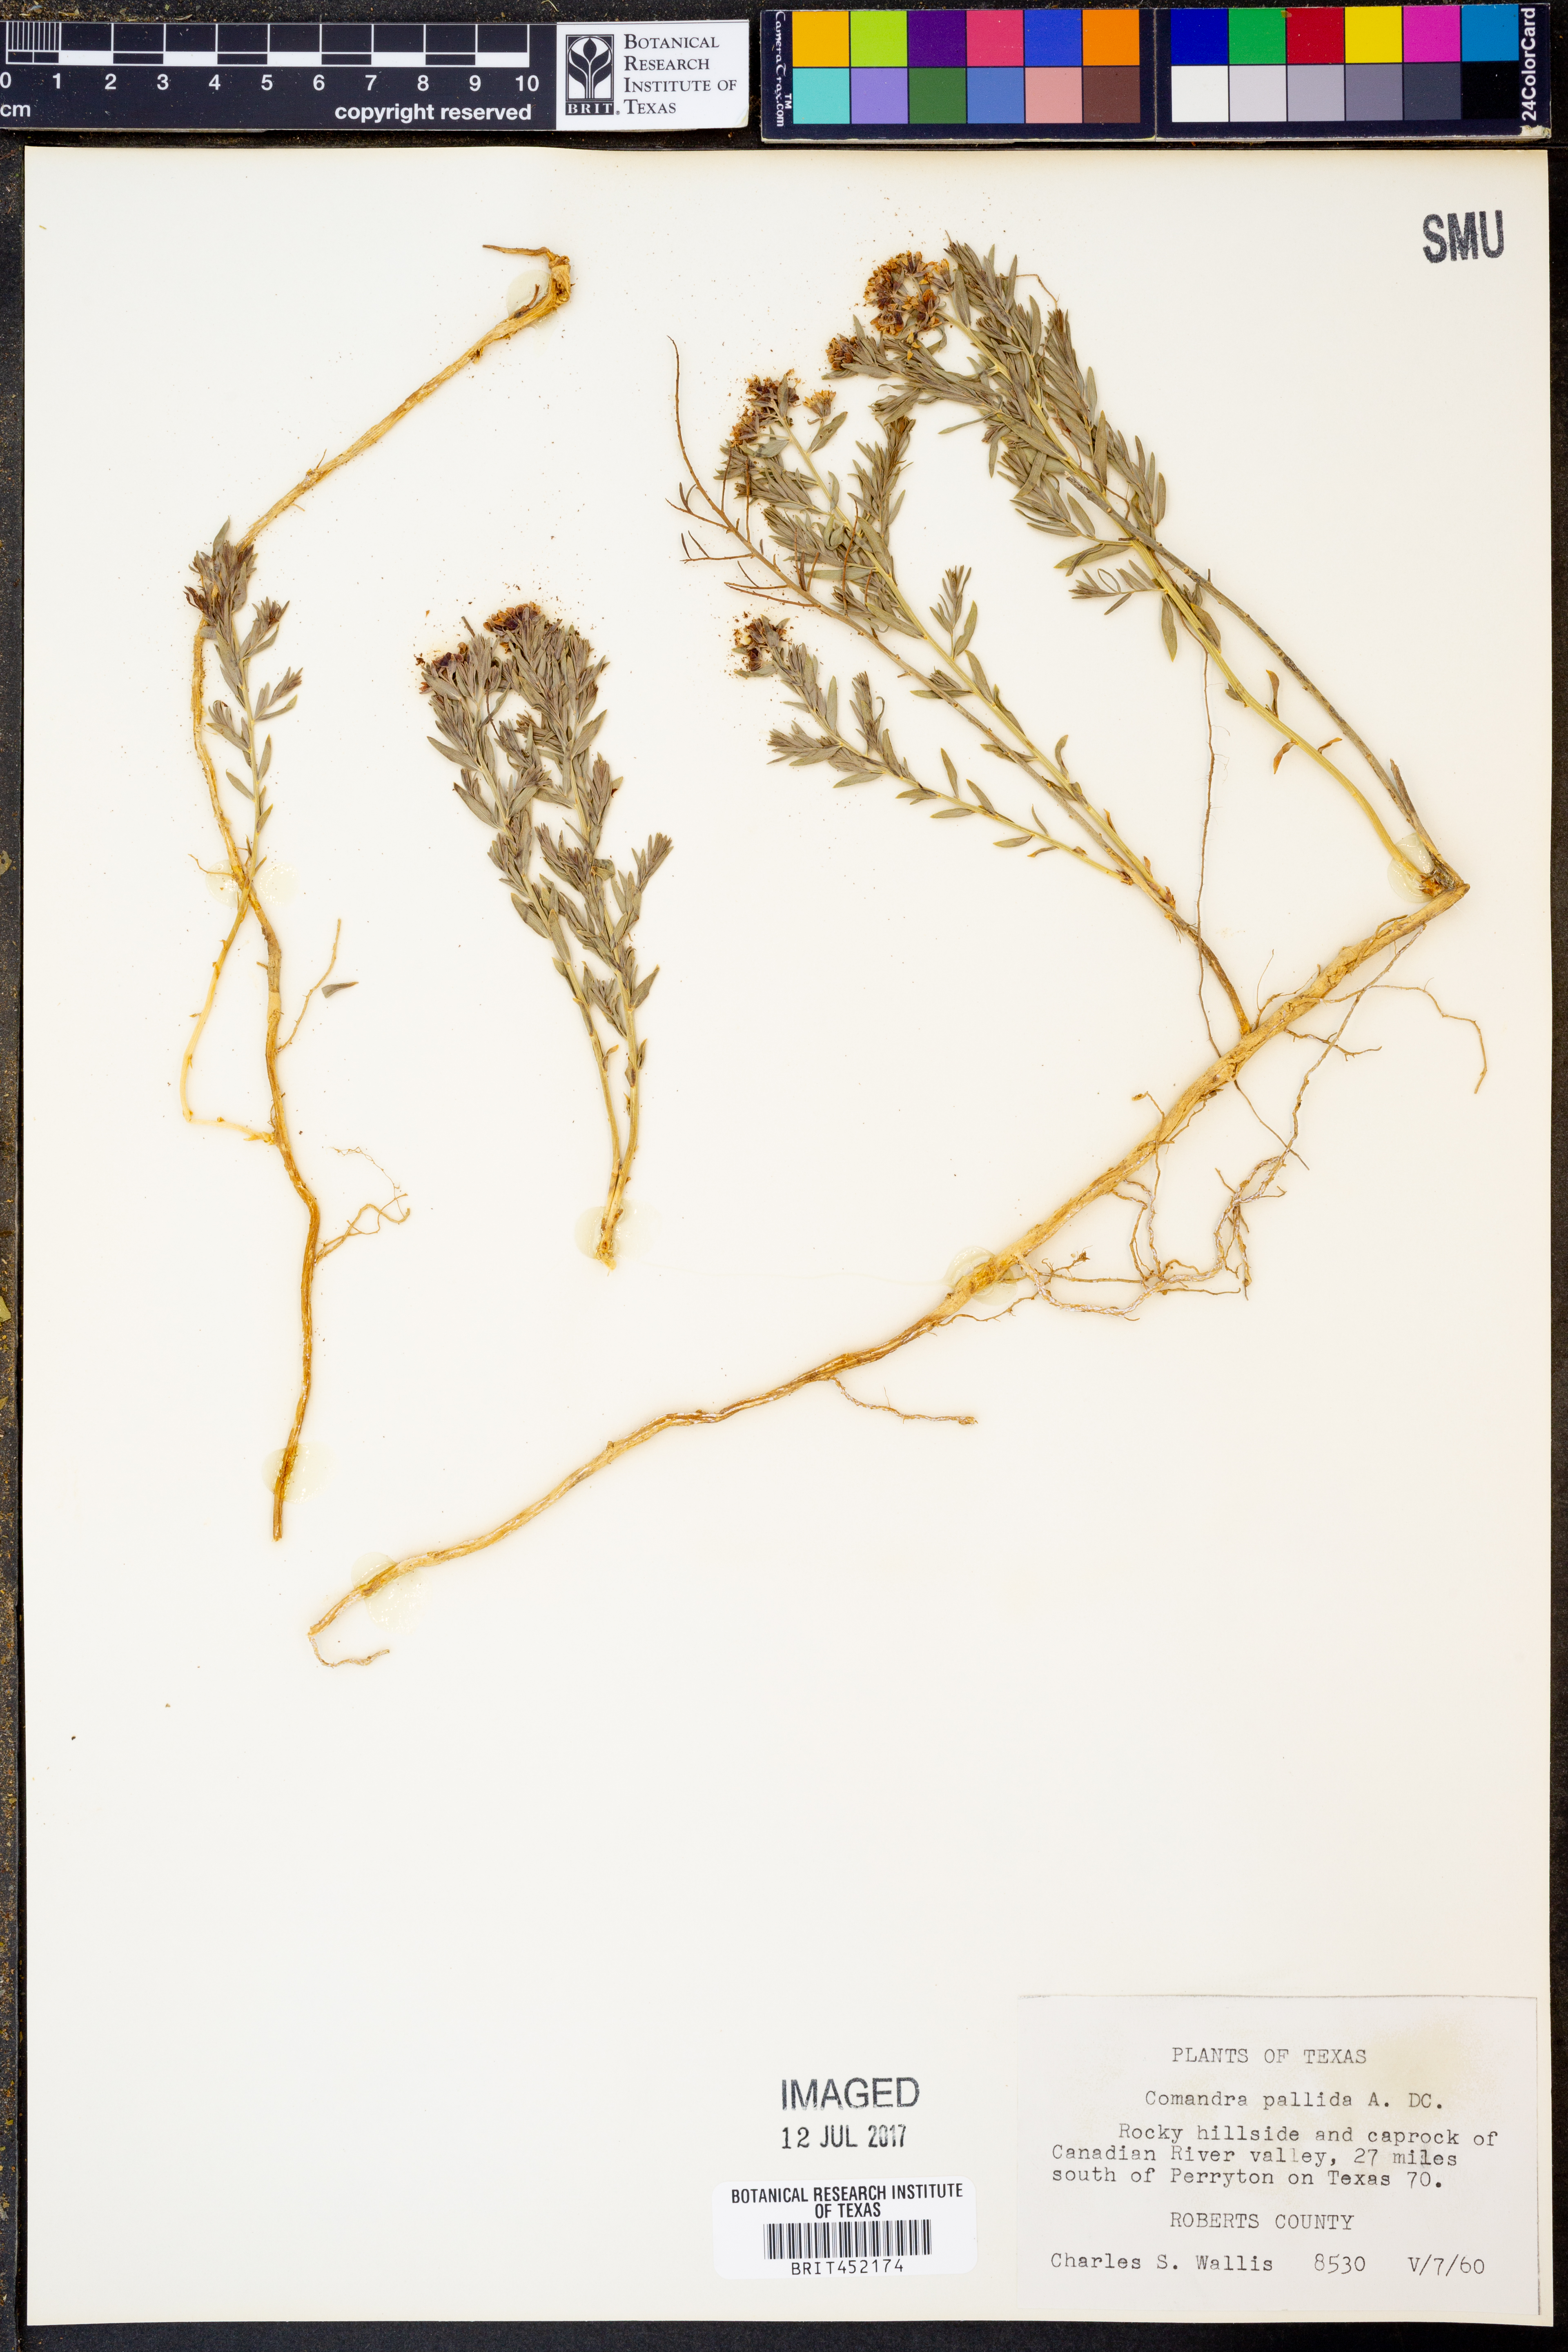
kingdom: Plantae
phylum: Tracheophyta
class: Magnoliopsida
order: Santalales
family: Comandraceae
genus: Comandra
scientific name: Comandra umbellata
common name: Bastard toadflax
